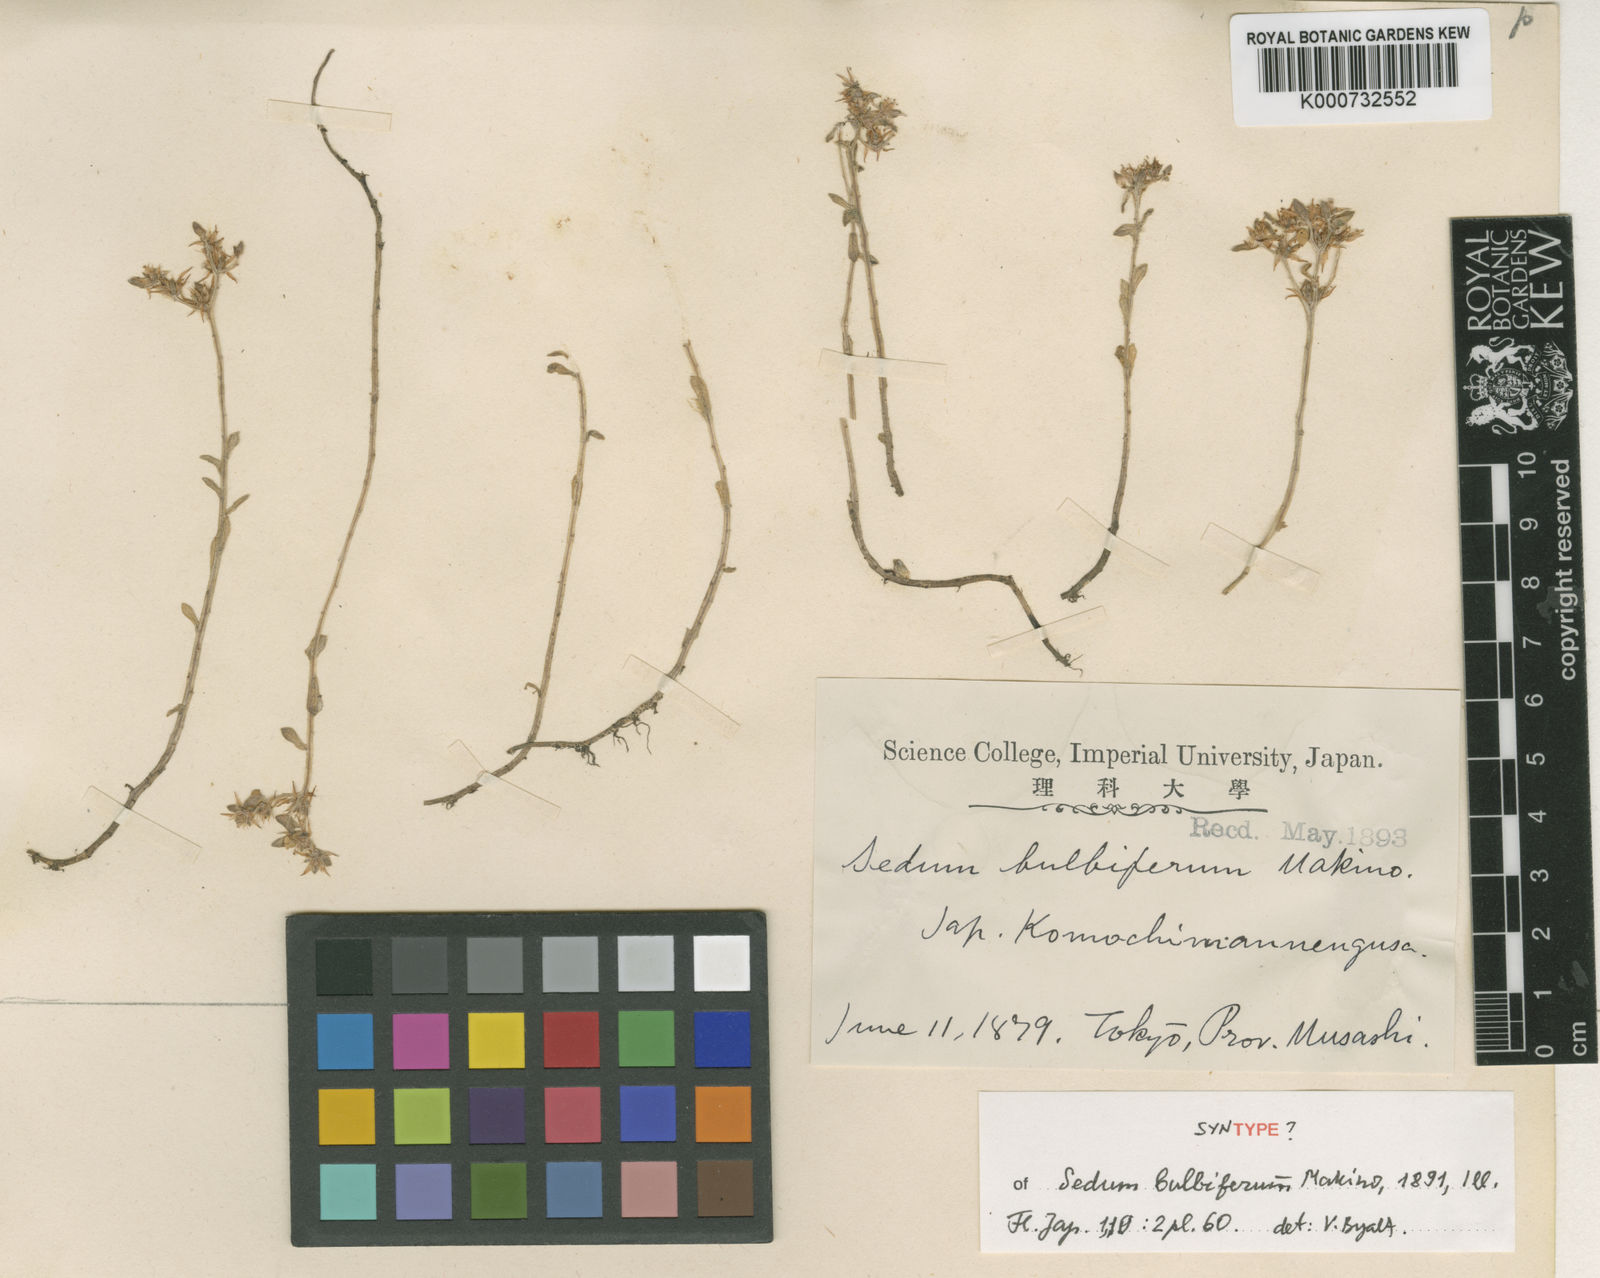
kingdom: Plantae
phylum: Tracheophyta
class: Magnoliopsida
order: Saxifragales
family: Crassulaceae
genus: Sedum
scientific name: Sedum bulbiferum
